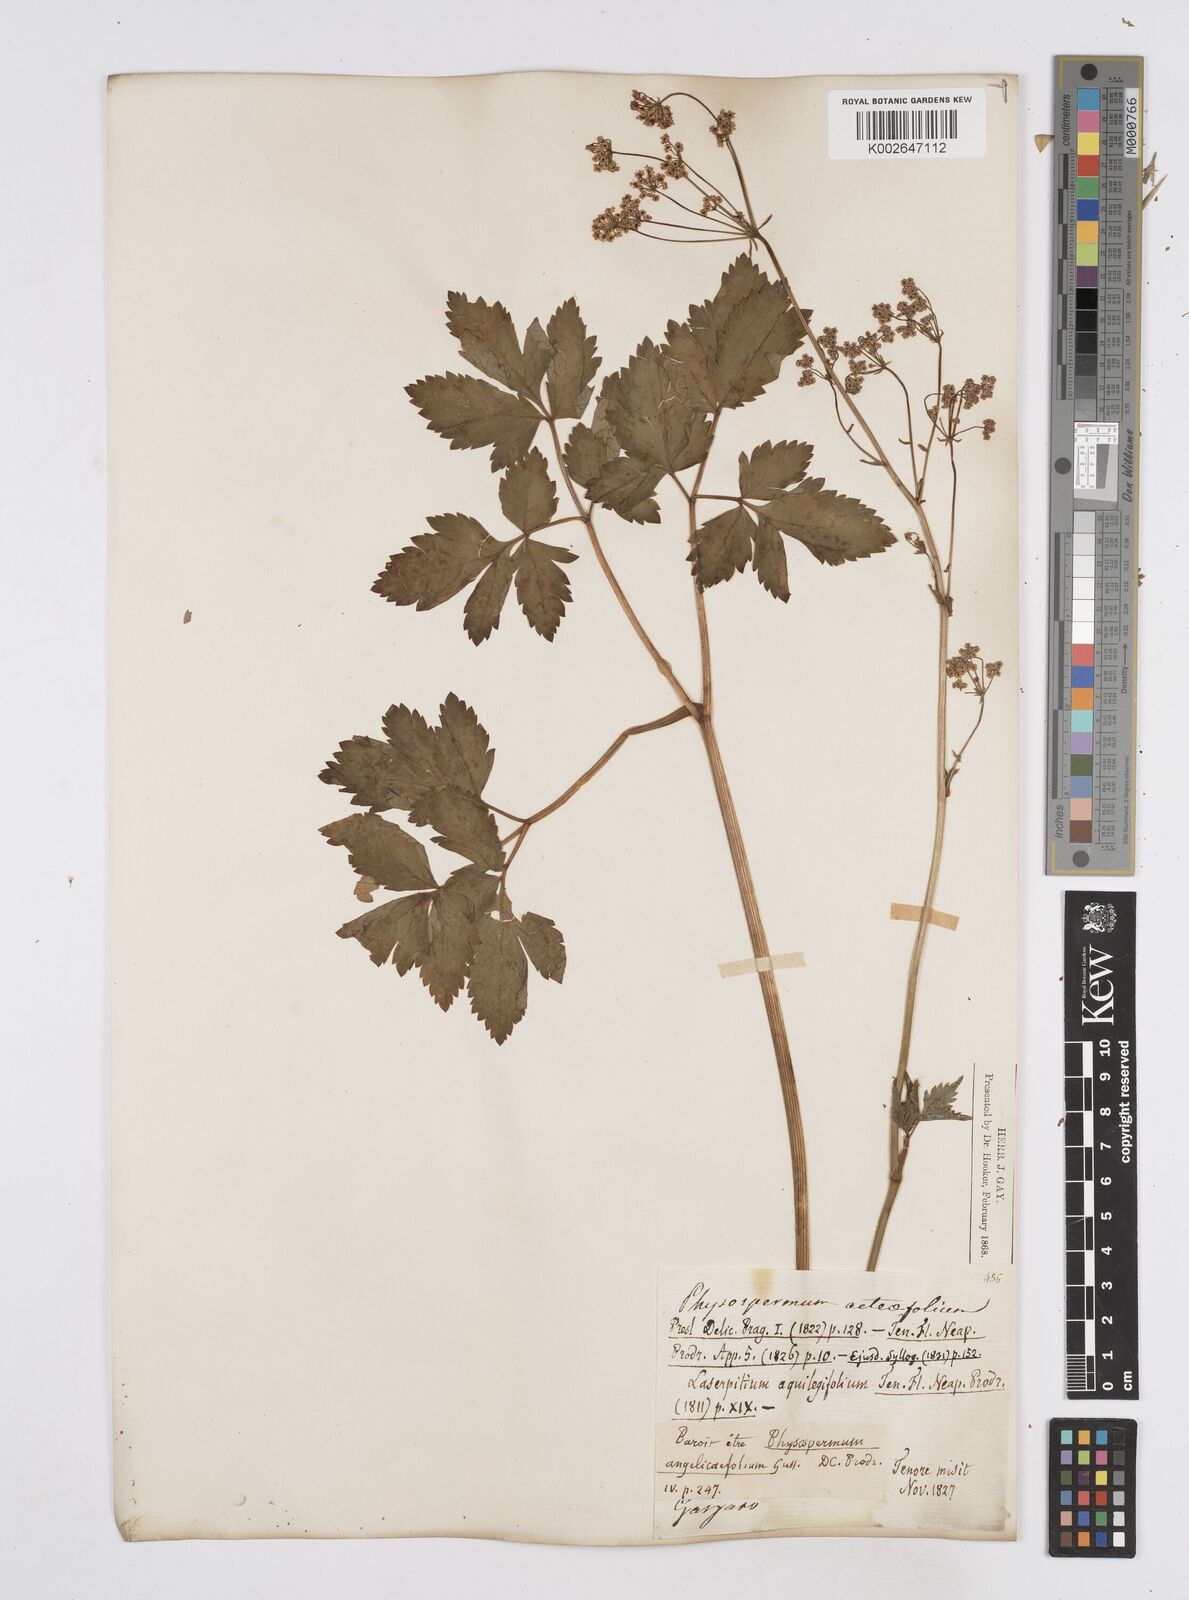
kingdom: Plantae
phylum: Tracheophyta
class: Magnoliopsida
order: Apiales
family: Apiaceae
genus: Physospermum
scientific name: Physospermum verticillatum
